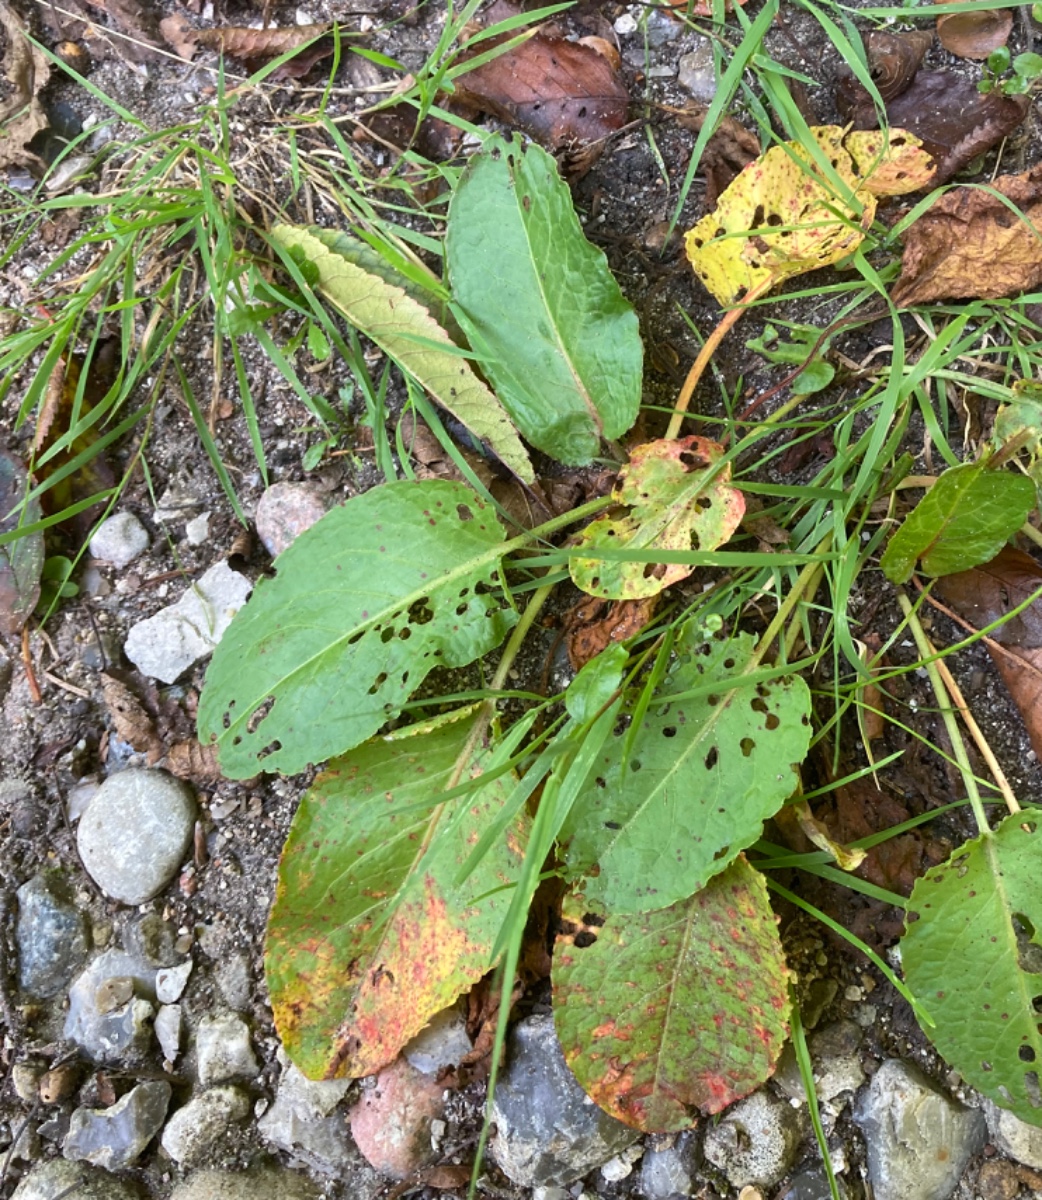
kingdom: Fungi
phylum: Basidiomycota
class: Pucciniomycetes
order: Pucciniales
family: Pucciniaceae
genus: Uromyces
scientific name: Uromyces rumicis
